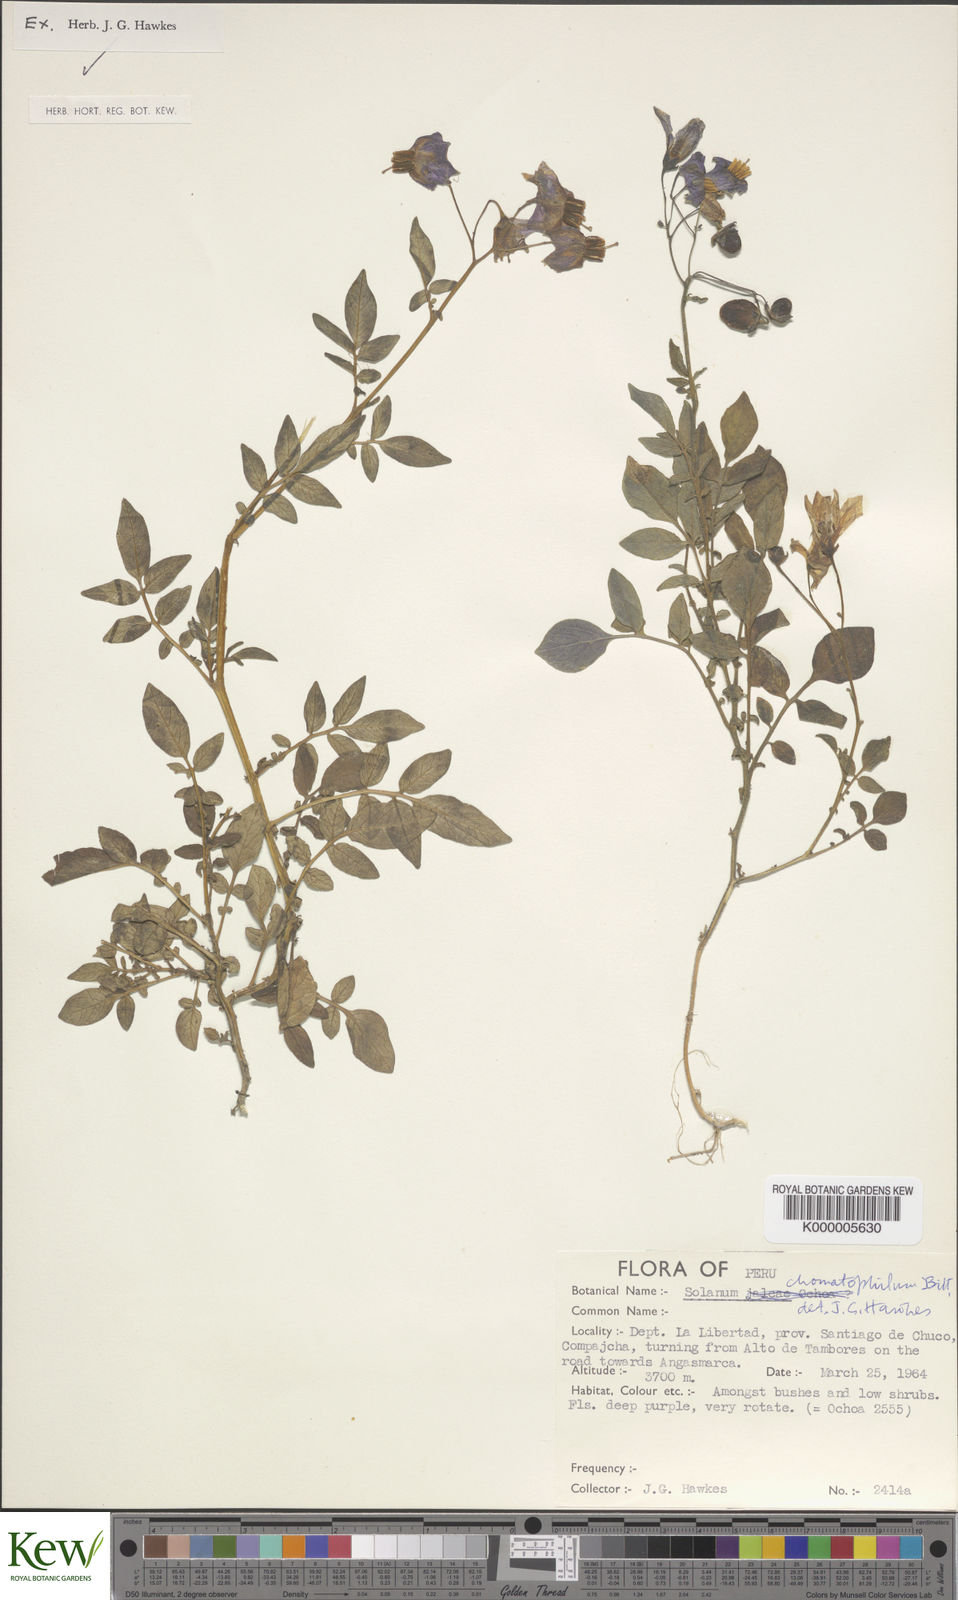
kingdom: Plantae
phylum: Tracheophyta
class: Magnoliopsida
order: Solanales
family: Solanaceae
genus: Solanum
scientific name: Solanum chomatophilum
